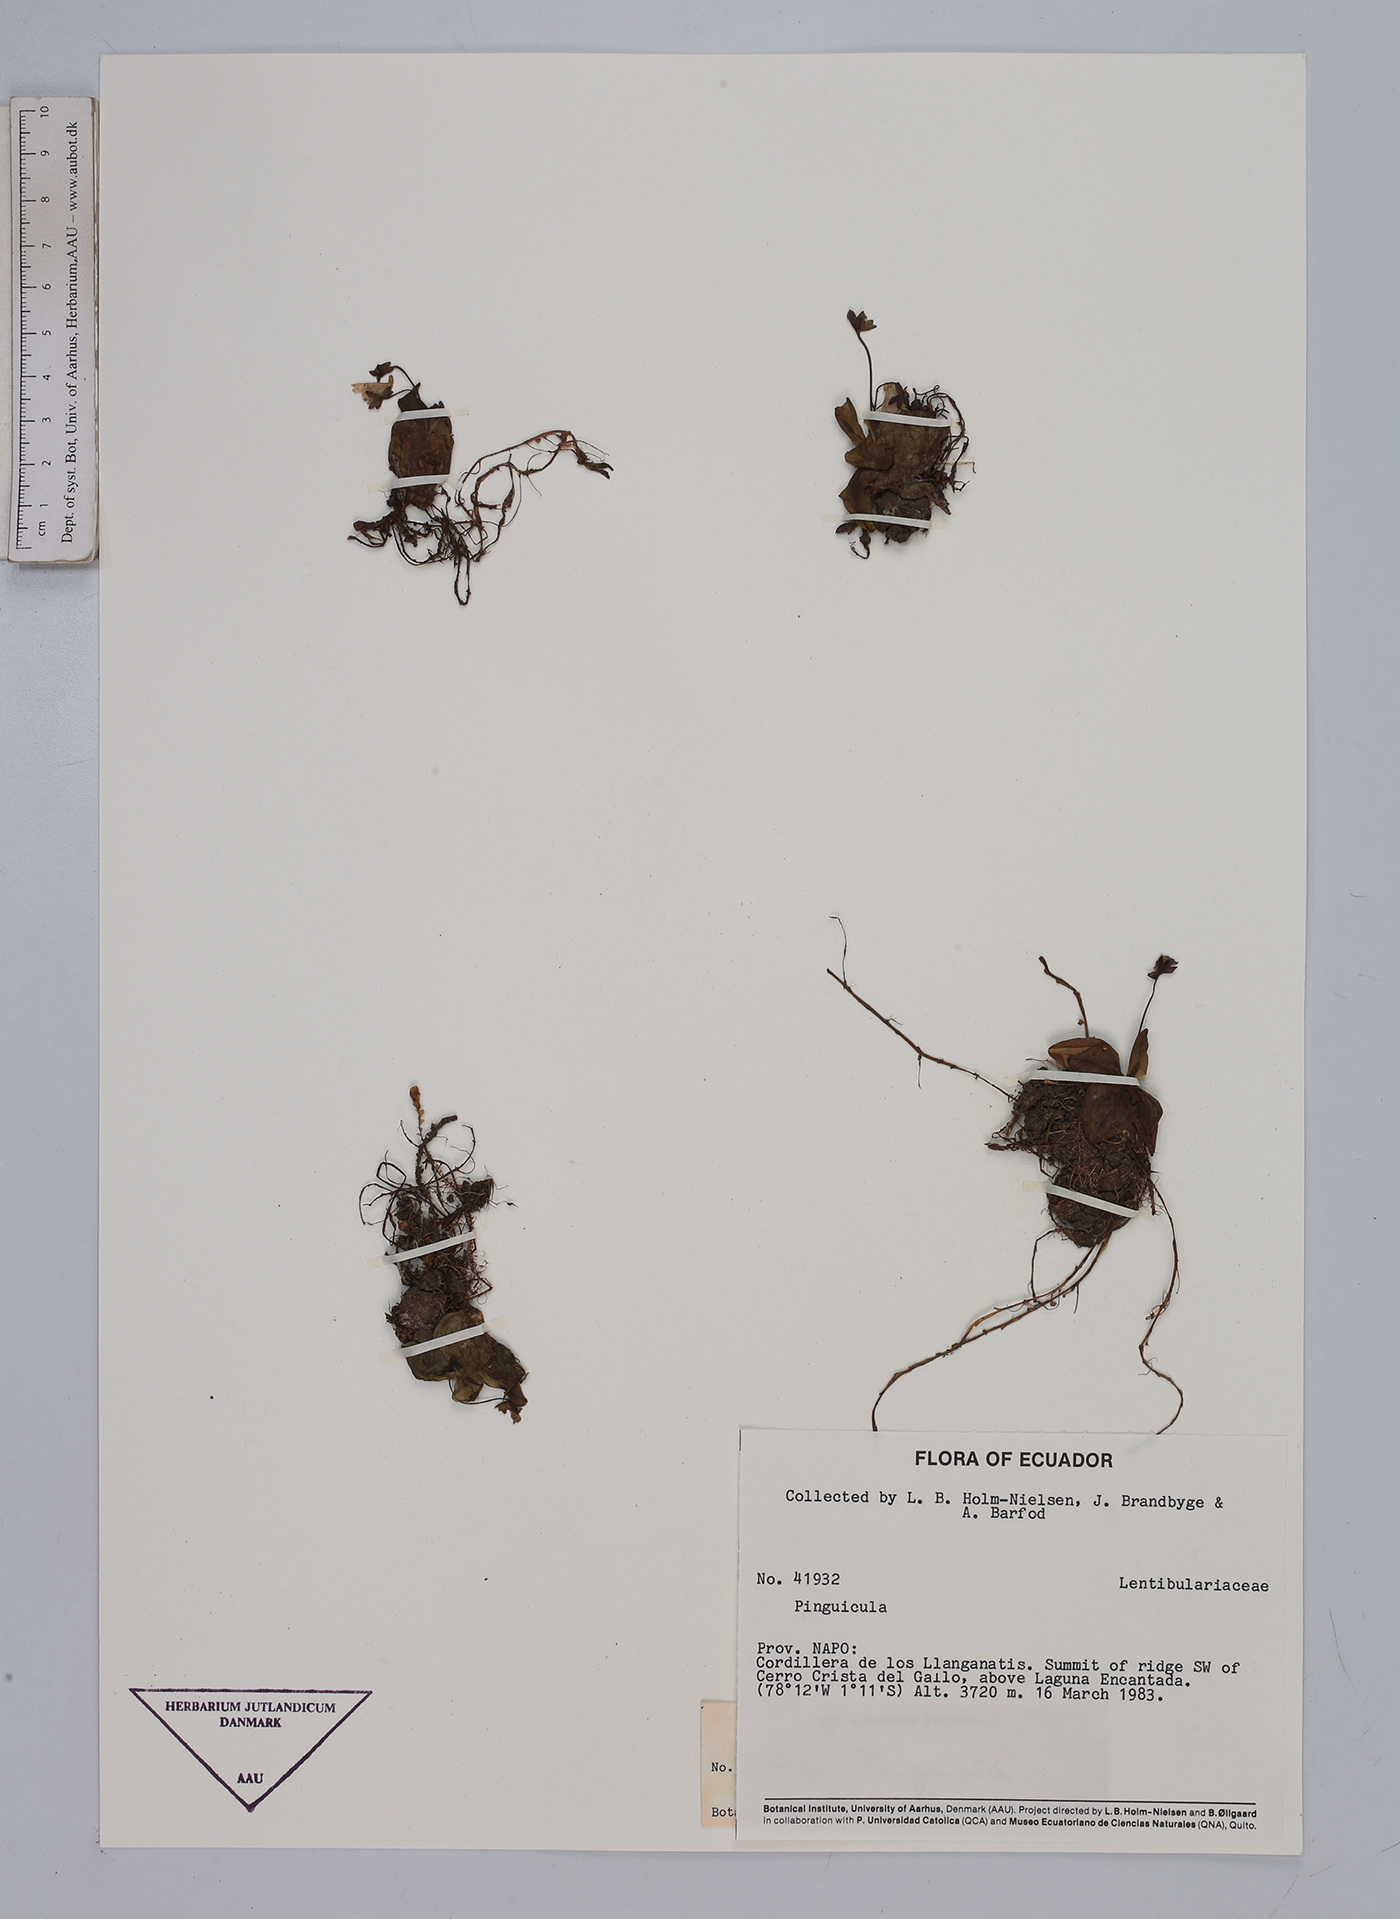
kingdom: Plantae
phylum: Tracheophyta
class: Magnoliopsida
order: Lamiales
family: Lentibulariaceae
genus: Pinguicula
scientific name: Pinguicula
